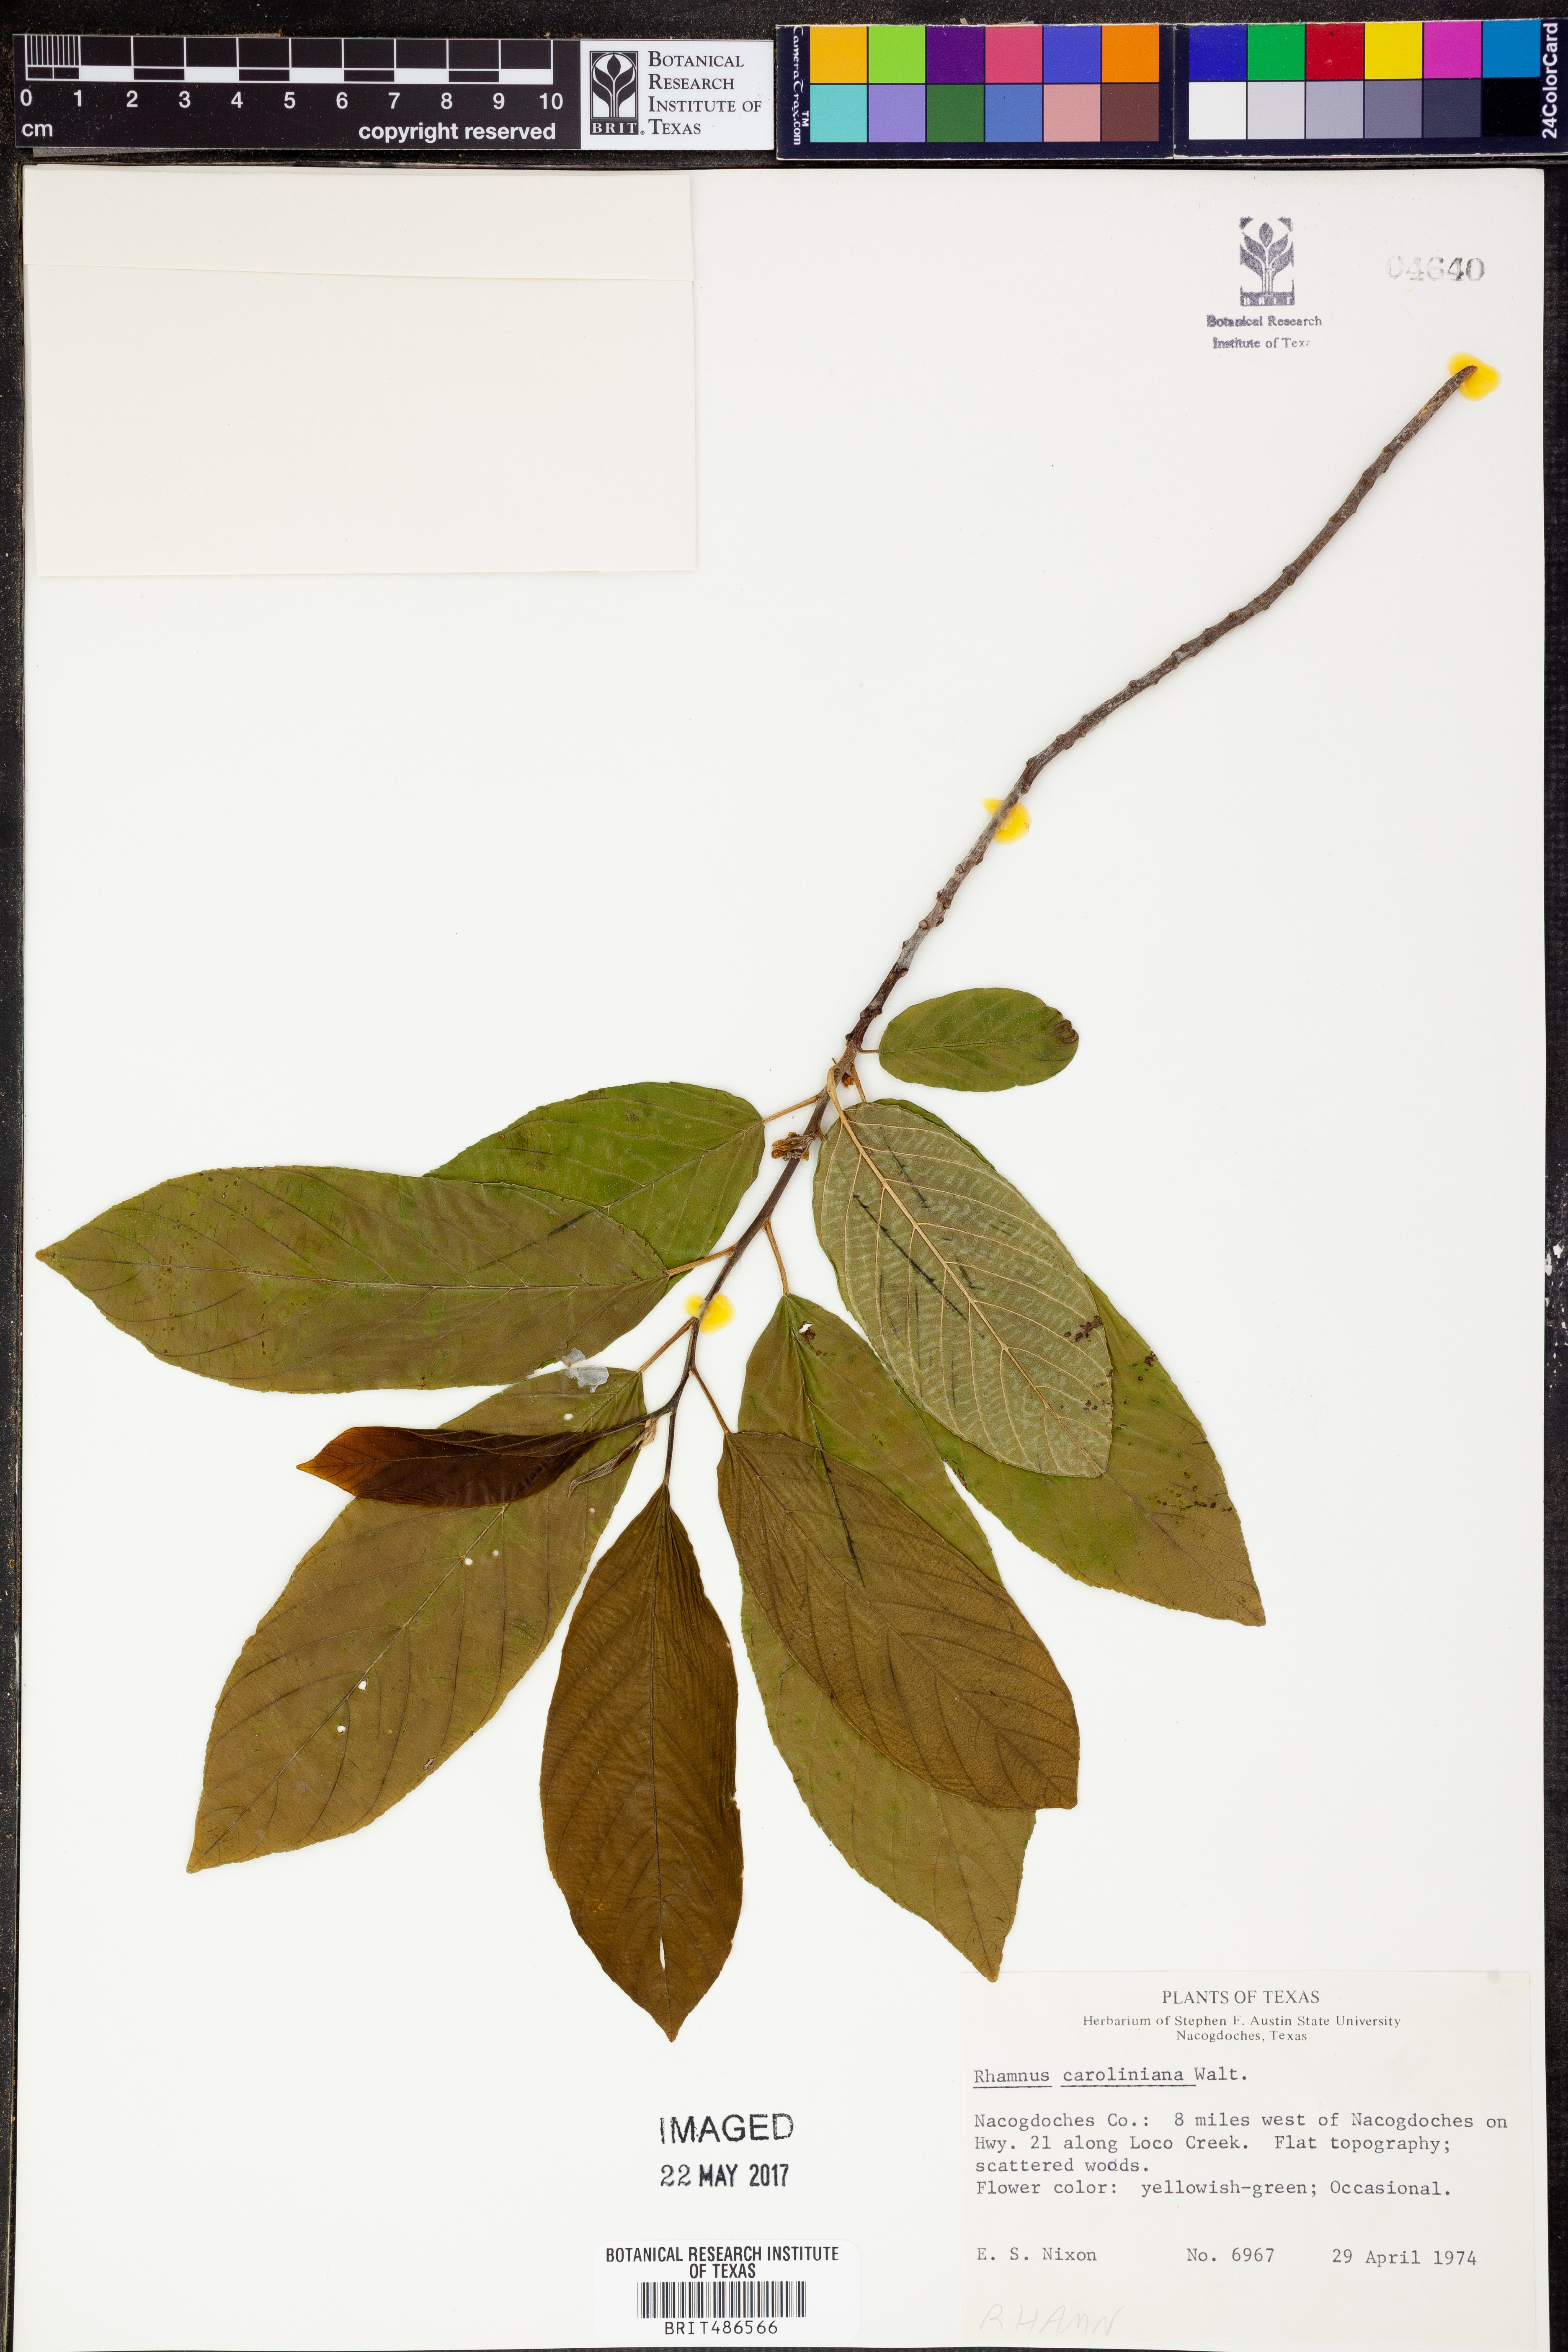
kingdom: Plantae
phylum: Tracheophyta
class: Magnoliopsida
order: Rosales
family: Rhamnaceae
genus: Frangula
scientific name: Frangula caroliniana
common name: Carolina buckthorn
